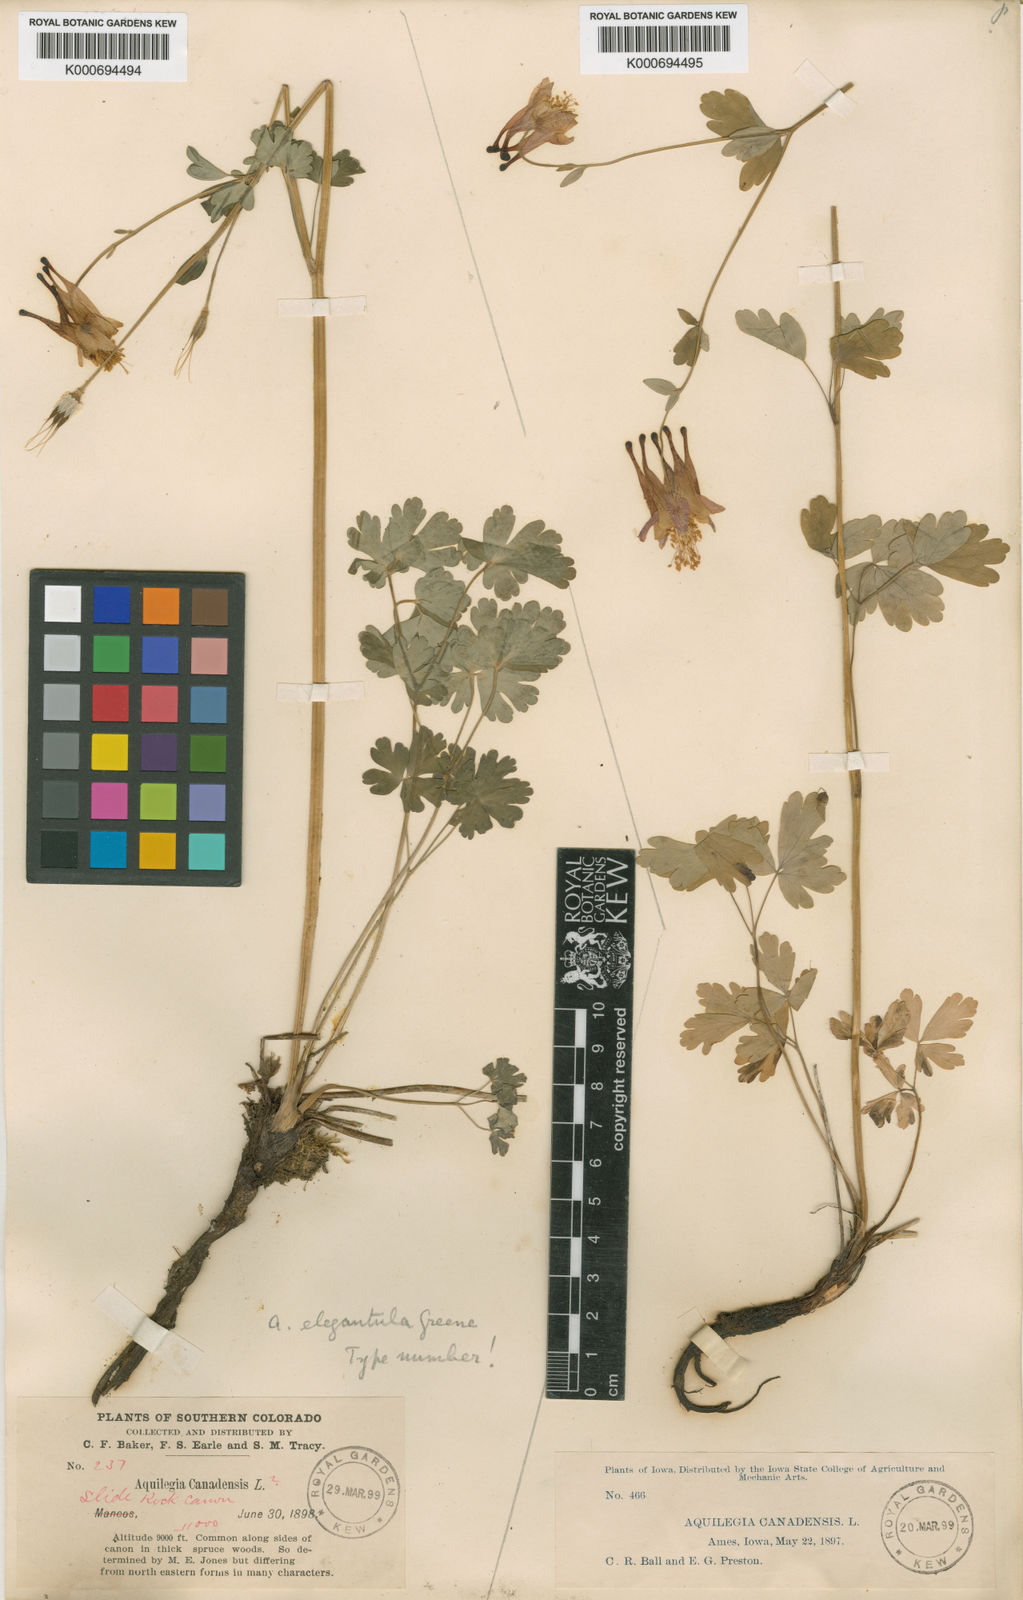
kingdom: Plantae
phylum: Tracheophyta
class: Magnoliopsida
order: Ranunculales
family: Ranunculaceae
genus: Aquilegia
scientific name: Aquilegia elegantula
